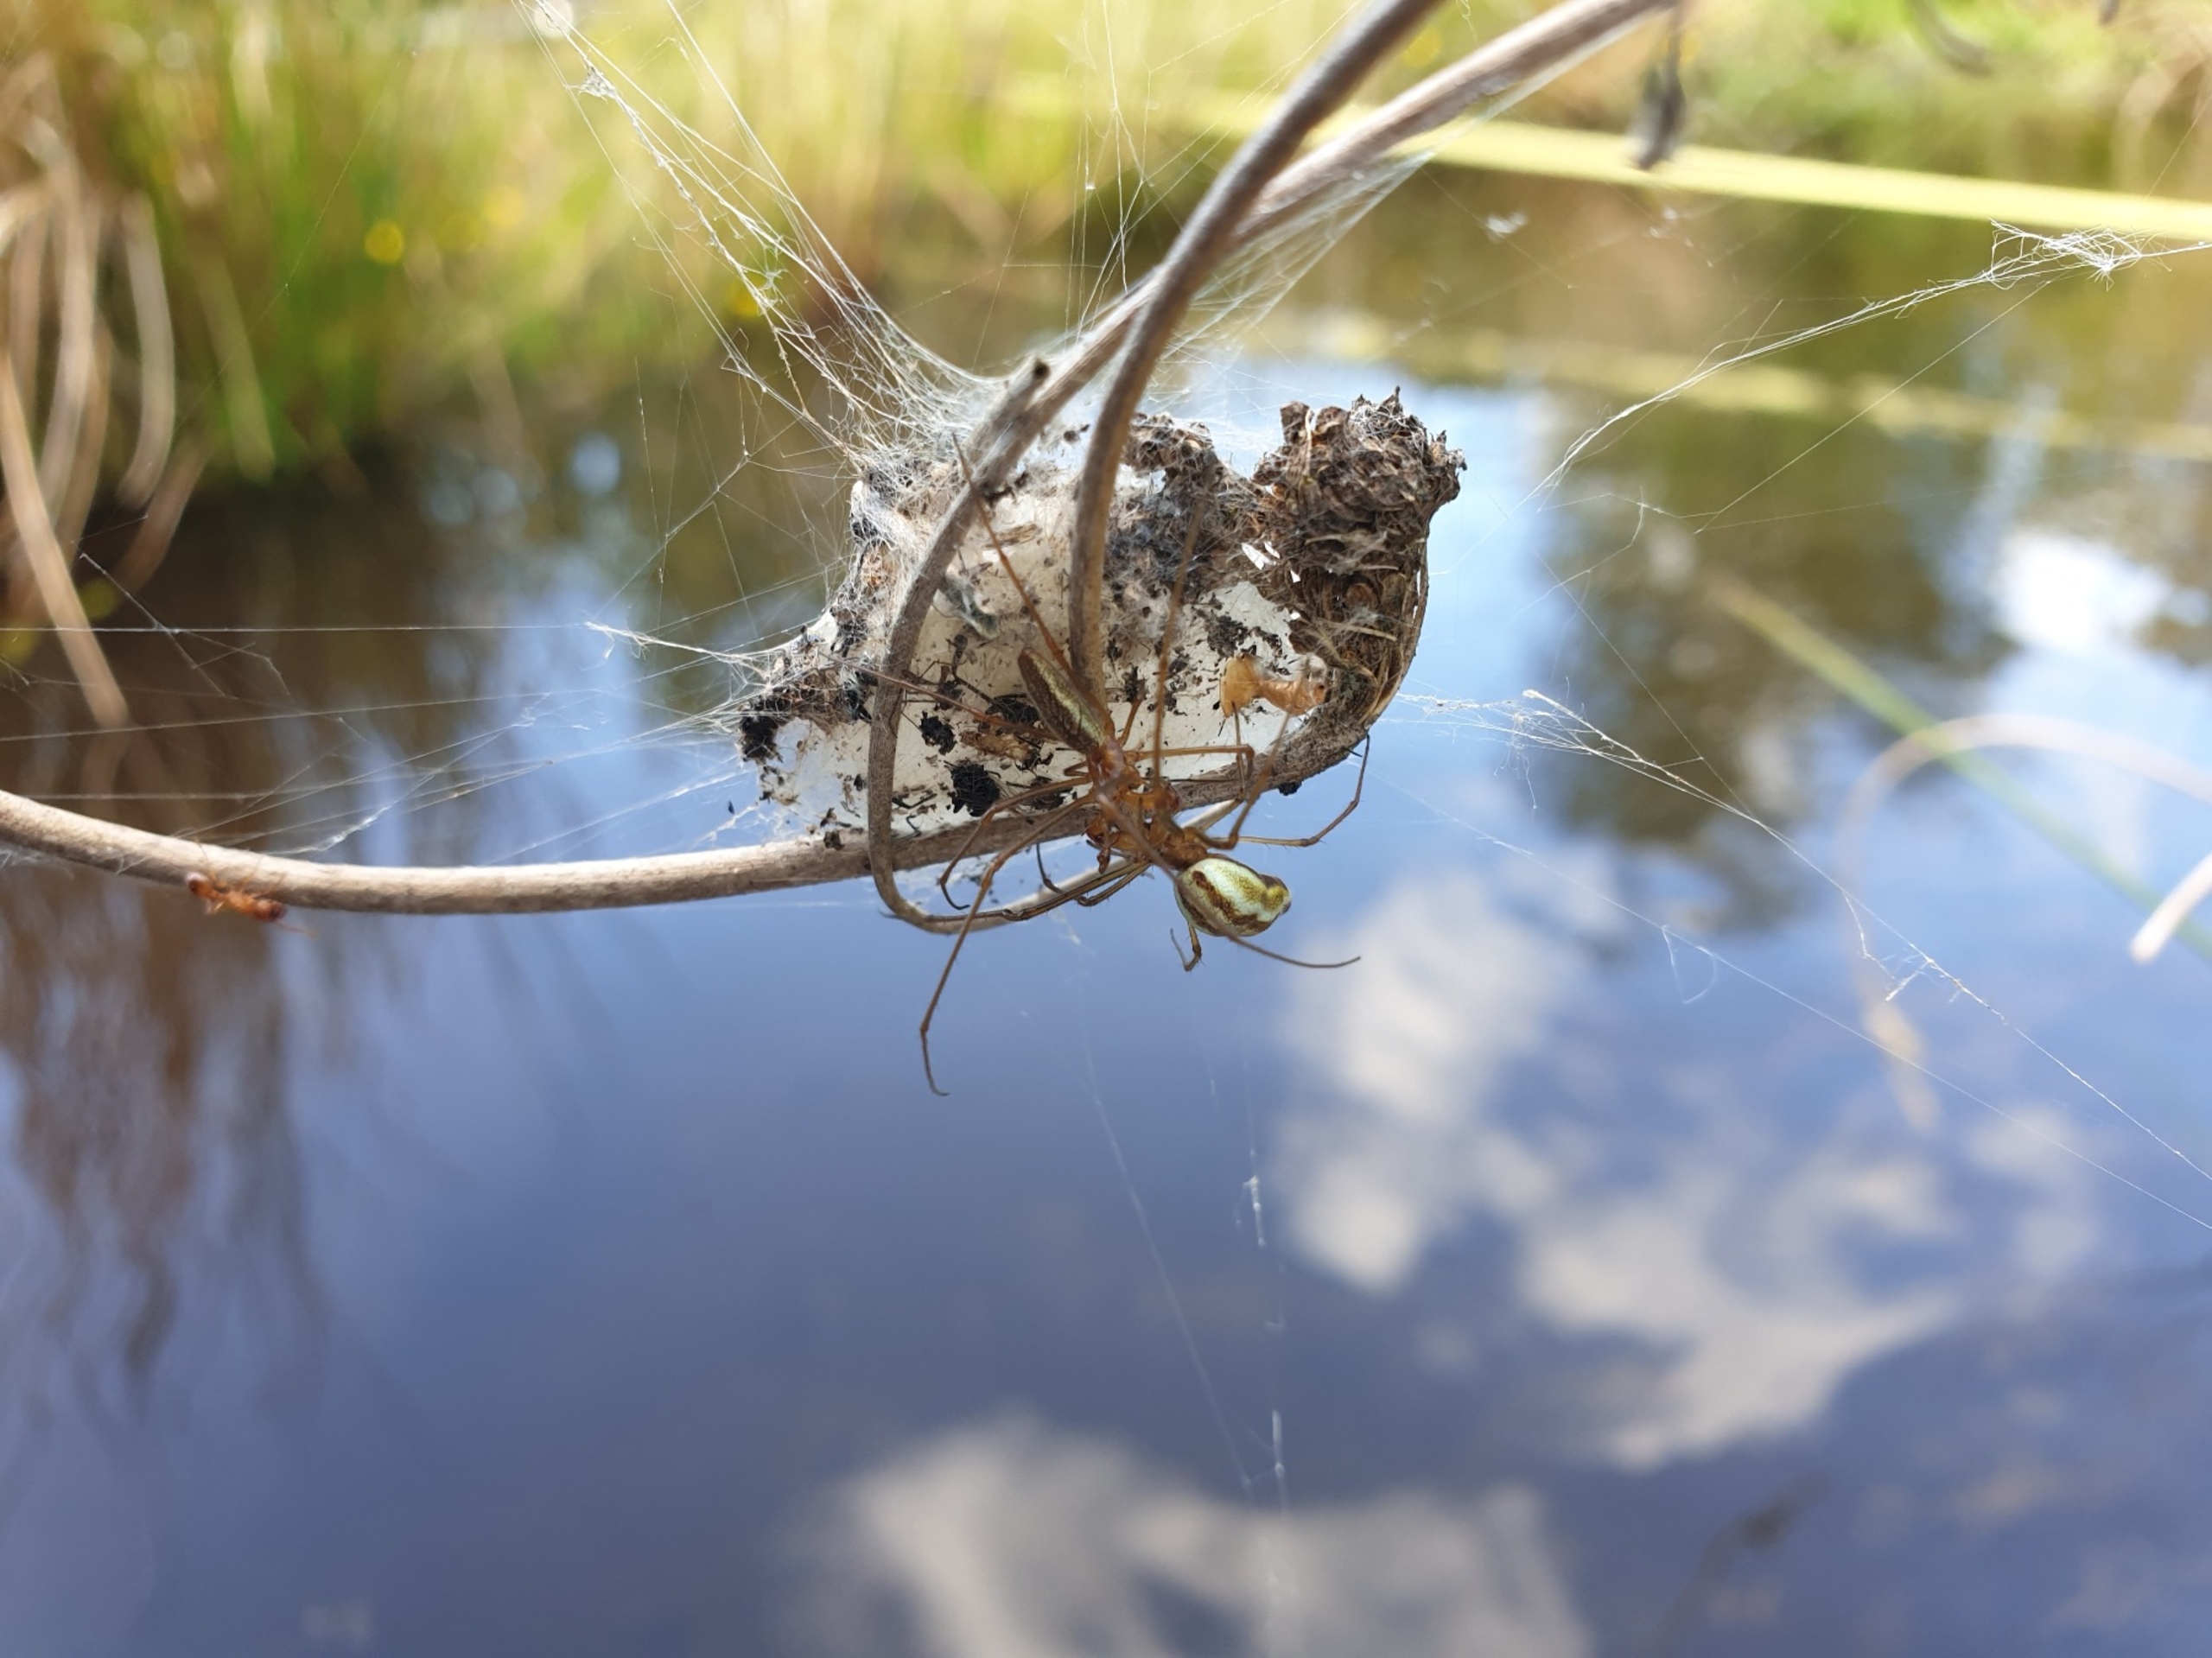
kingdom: Animalia
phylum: Arthropoda
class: Arachnida
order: Araneae
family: Tetragnathidae
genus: Tetragnatha
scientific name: Tetragnatha extensa
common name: Engstavedderkop
